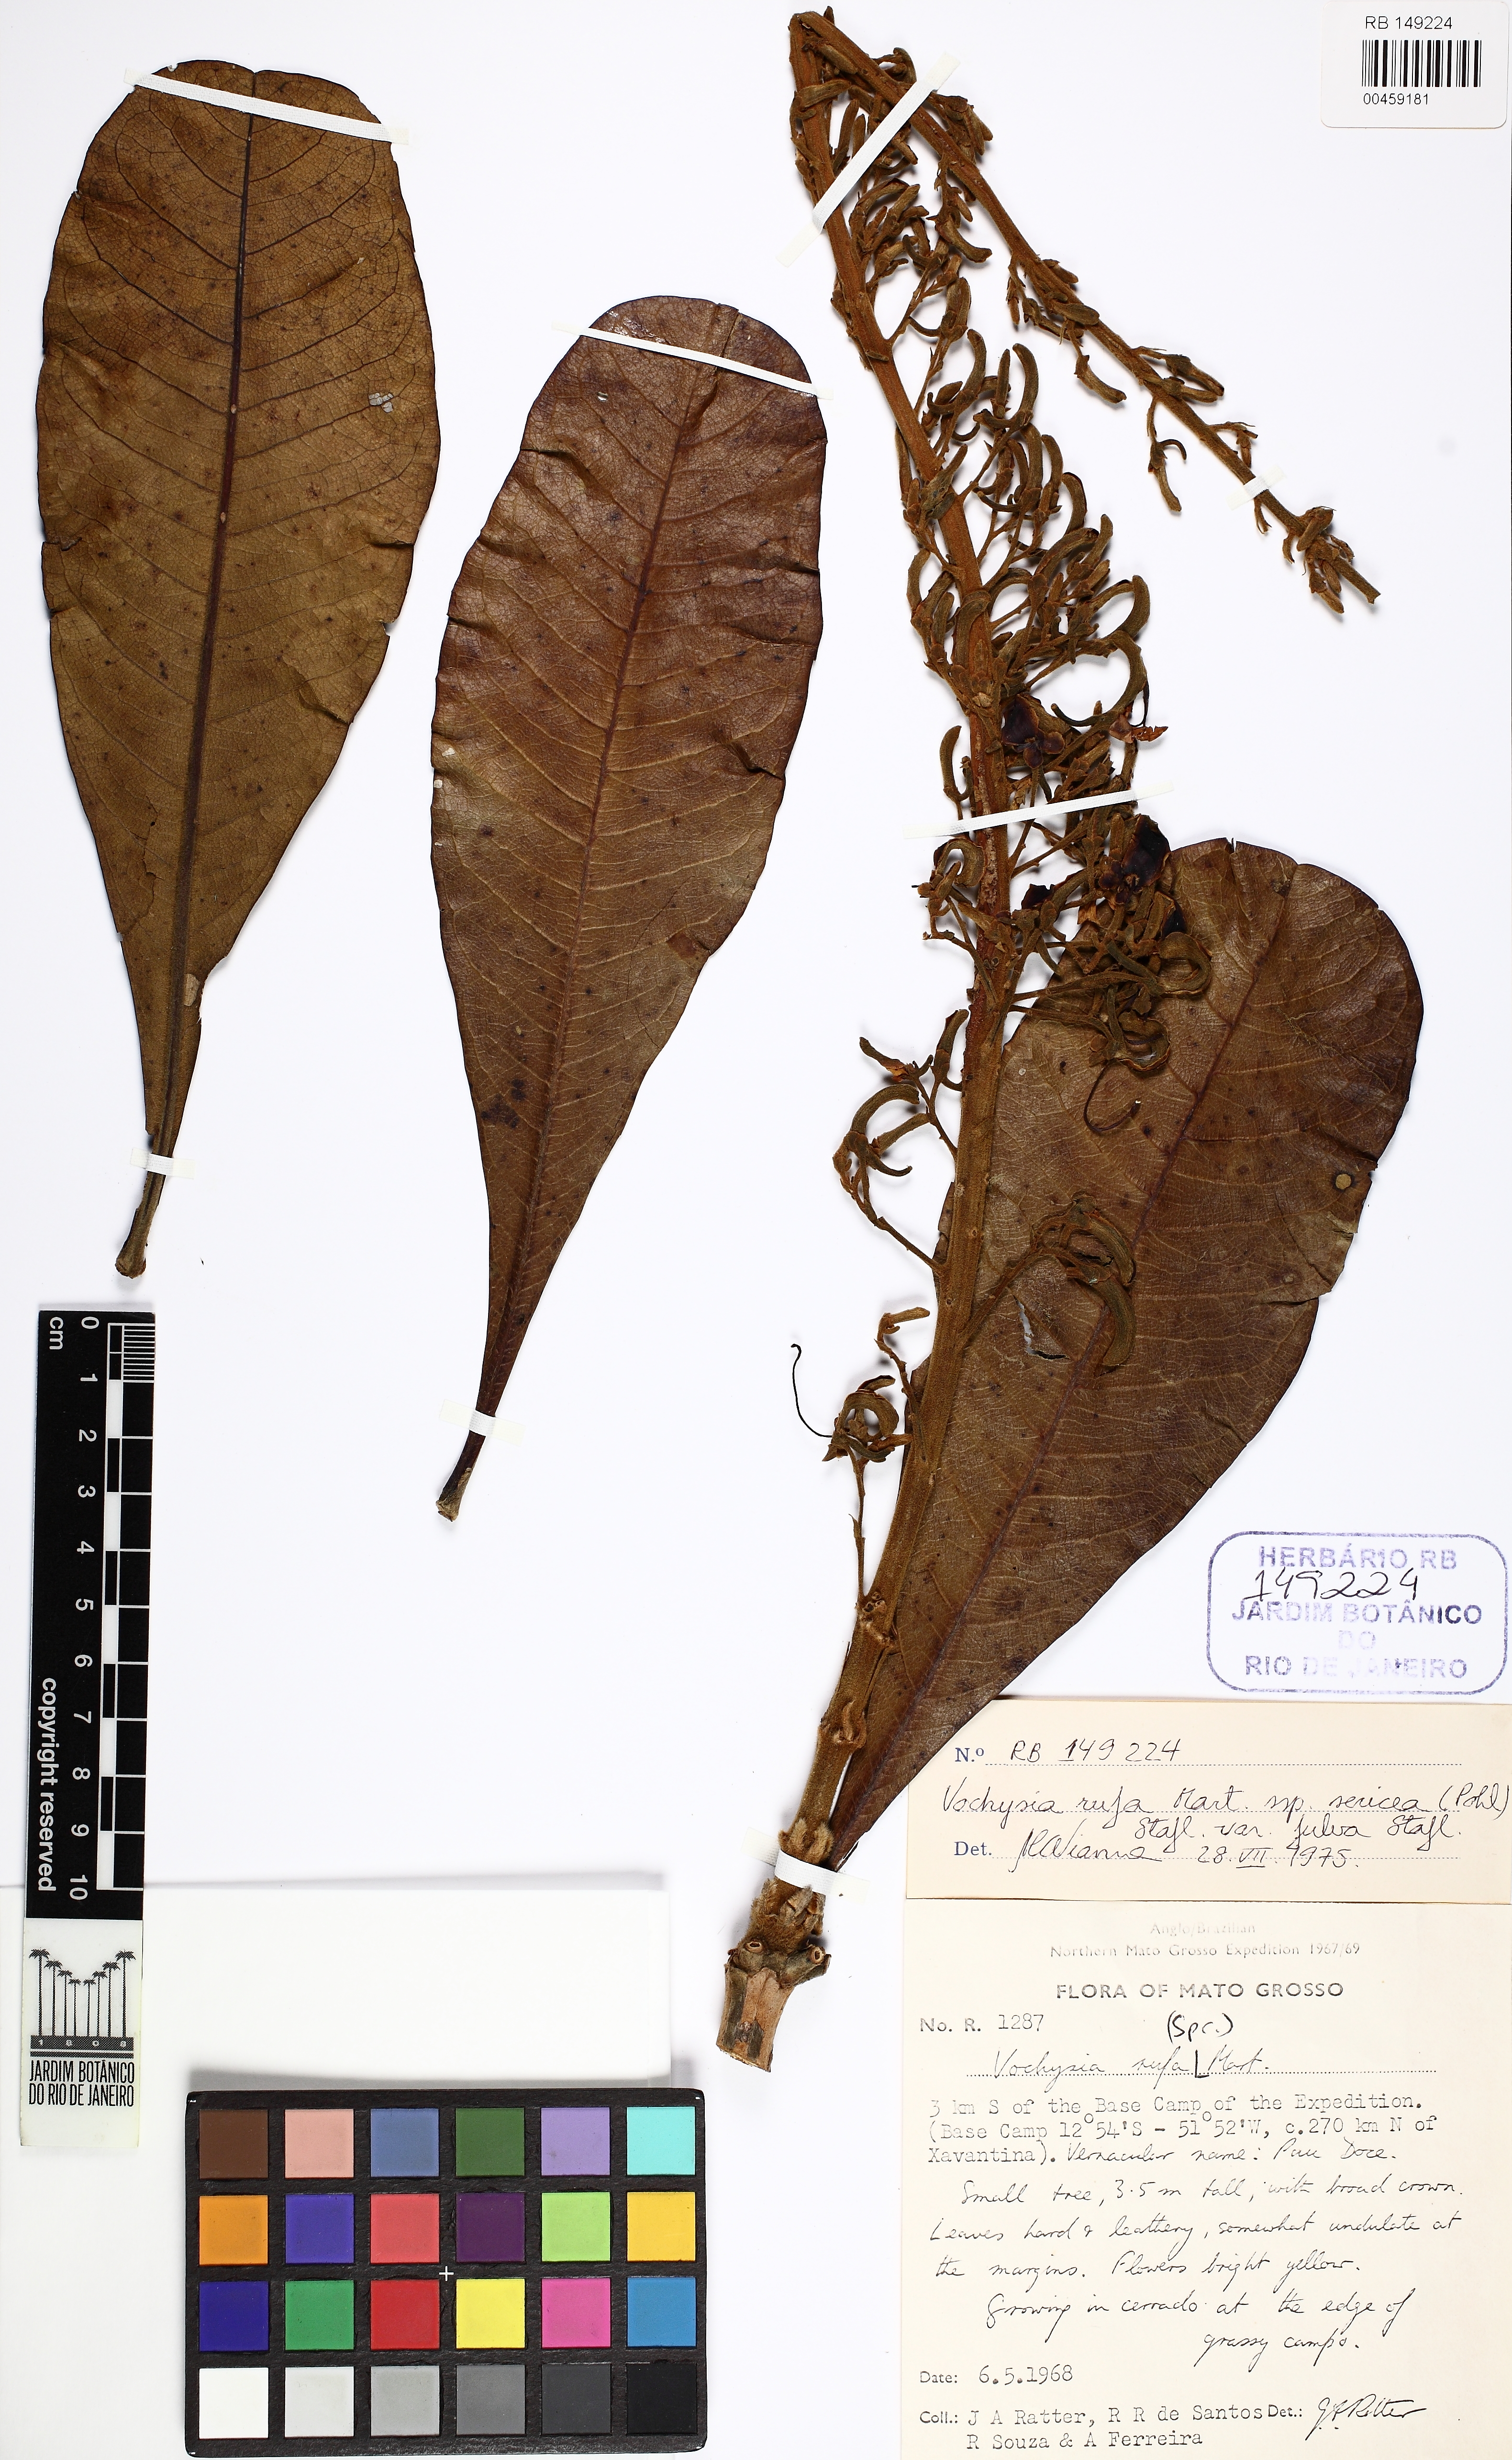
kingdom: Plantae
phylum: Tracheophyta
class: Magnoliopsida
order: Myrtales
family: Vochysiaceae
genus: Vochysia
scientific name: Vochysia rufa
